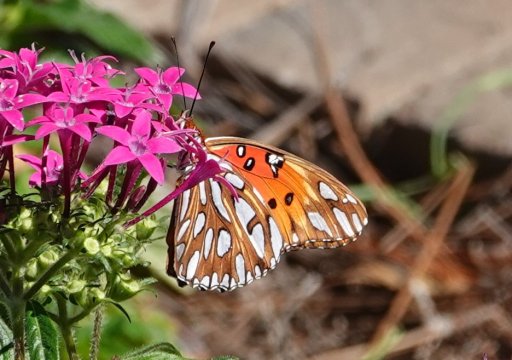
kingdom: Animalia
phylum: Arthropoda
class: Insecta
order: Lepidoptera
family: Nymphalidae
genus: Dione
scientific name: Dione vanillae
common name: Gulf Fritillary
